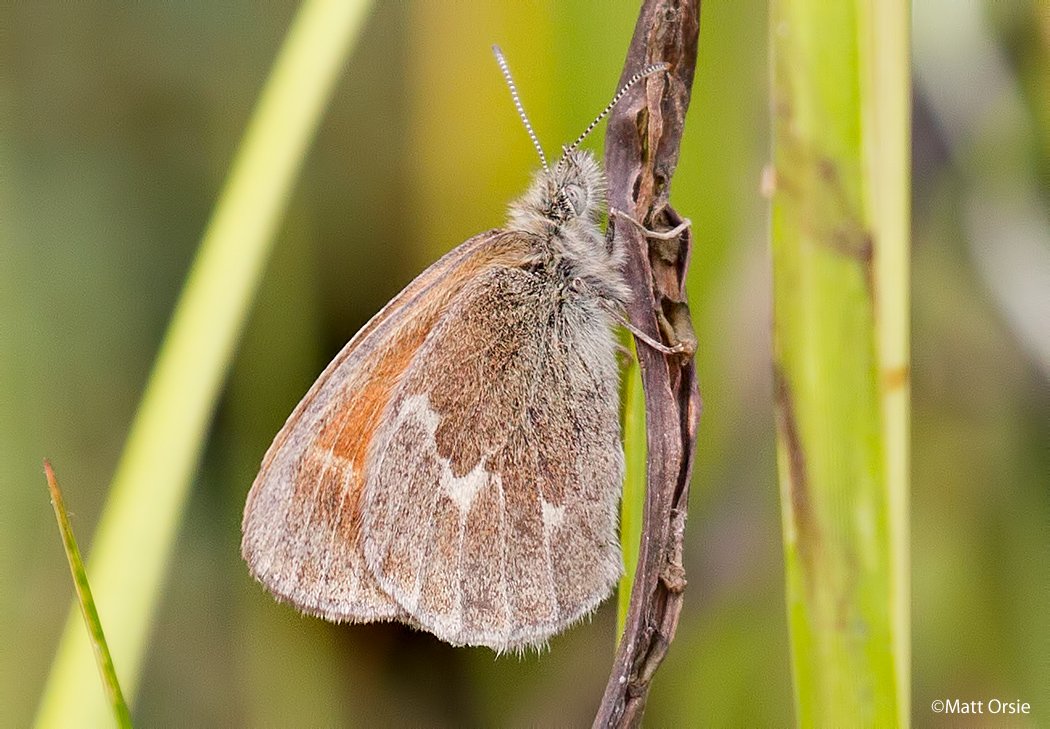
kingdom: Animalia
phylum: Arthropoda
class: Insecta
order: Lepidoptera
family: Nymphalidae
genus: Coenonympha
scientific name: Coenonympha inornata
